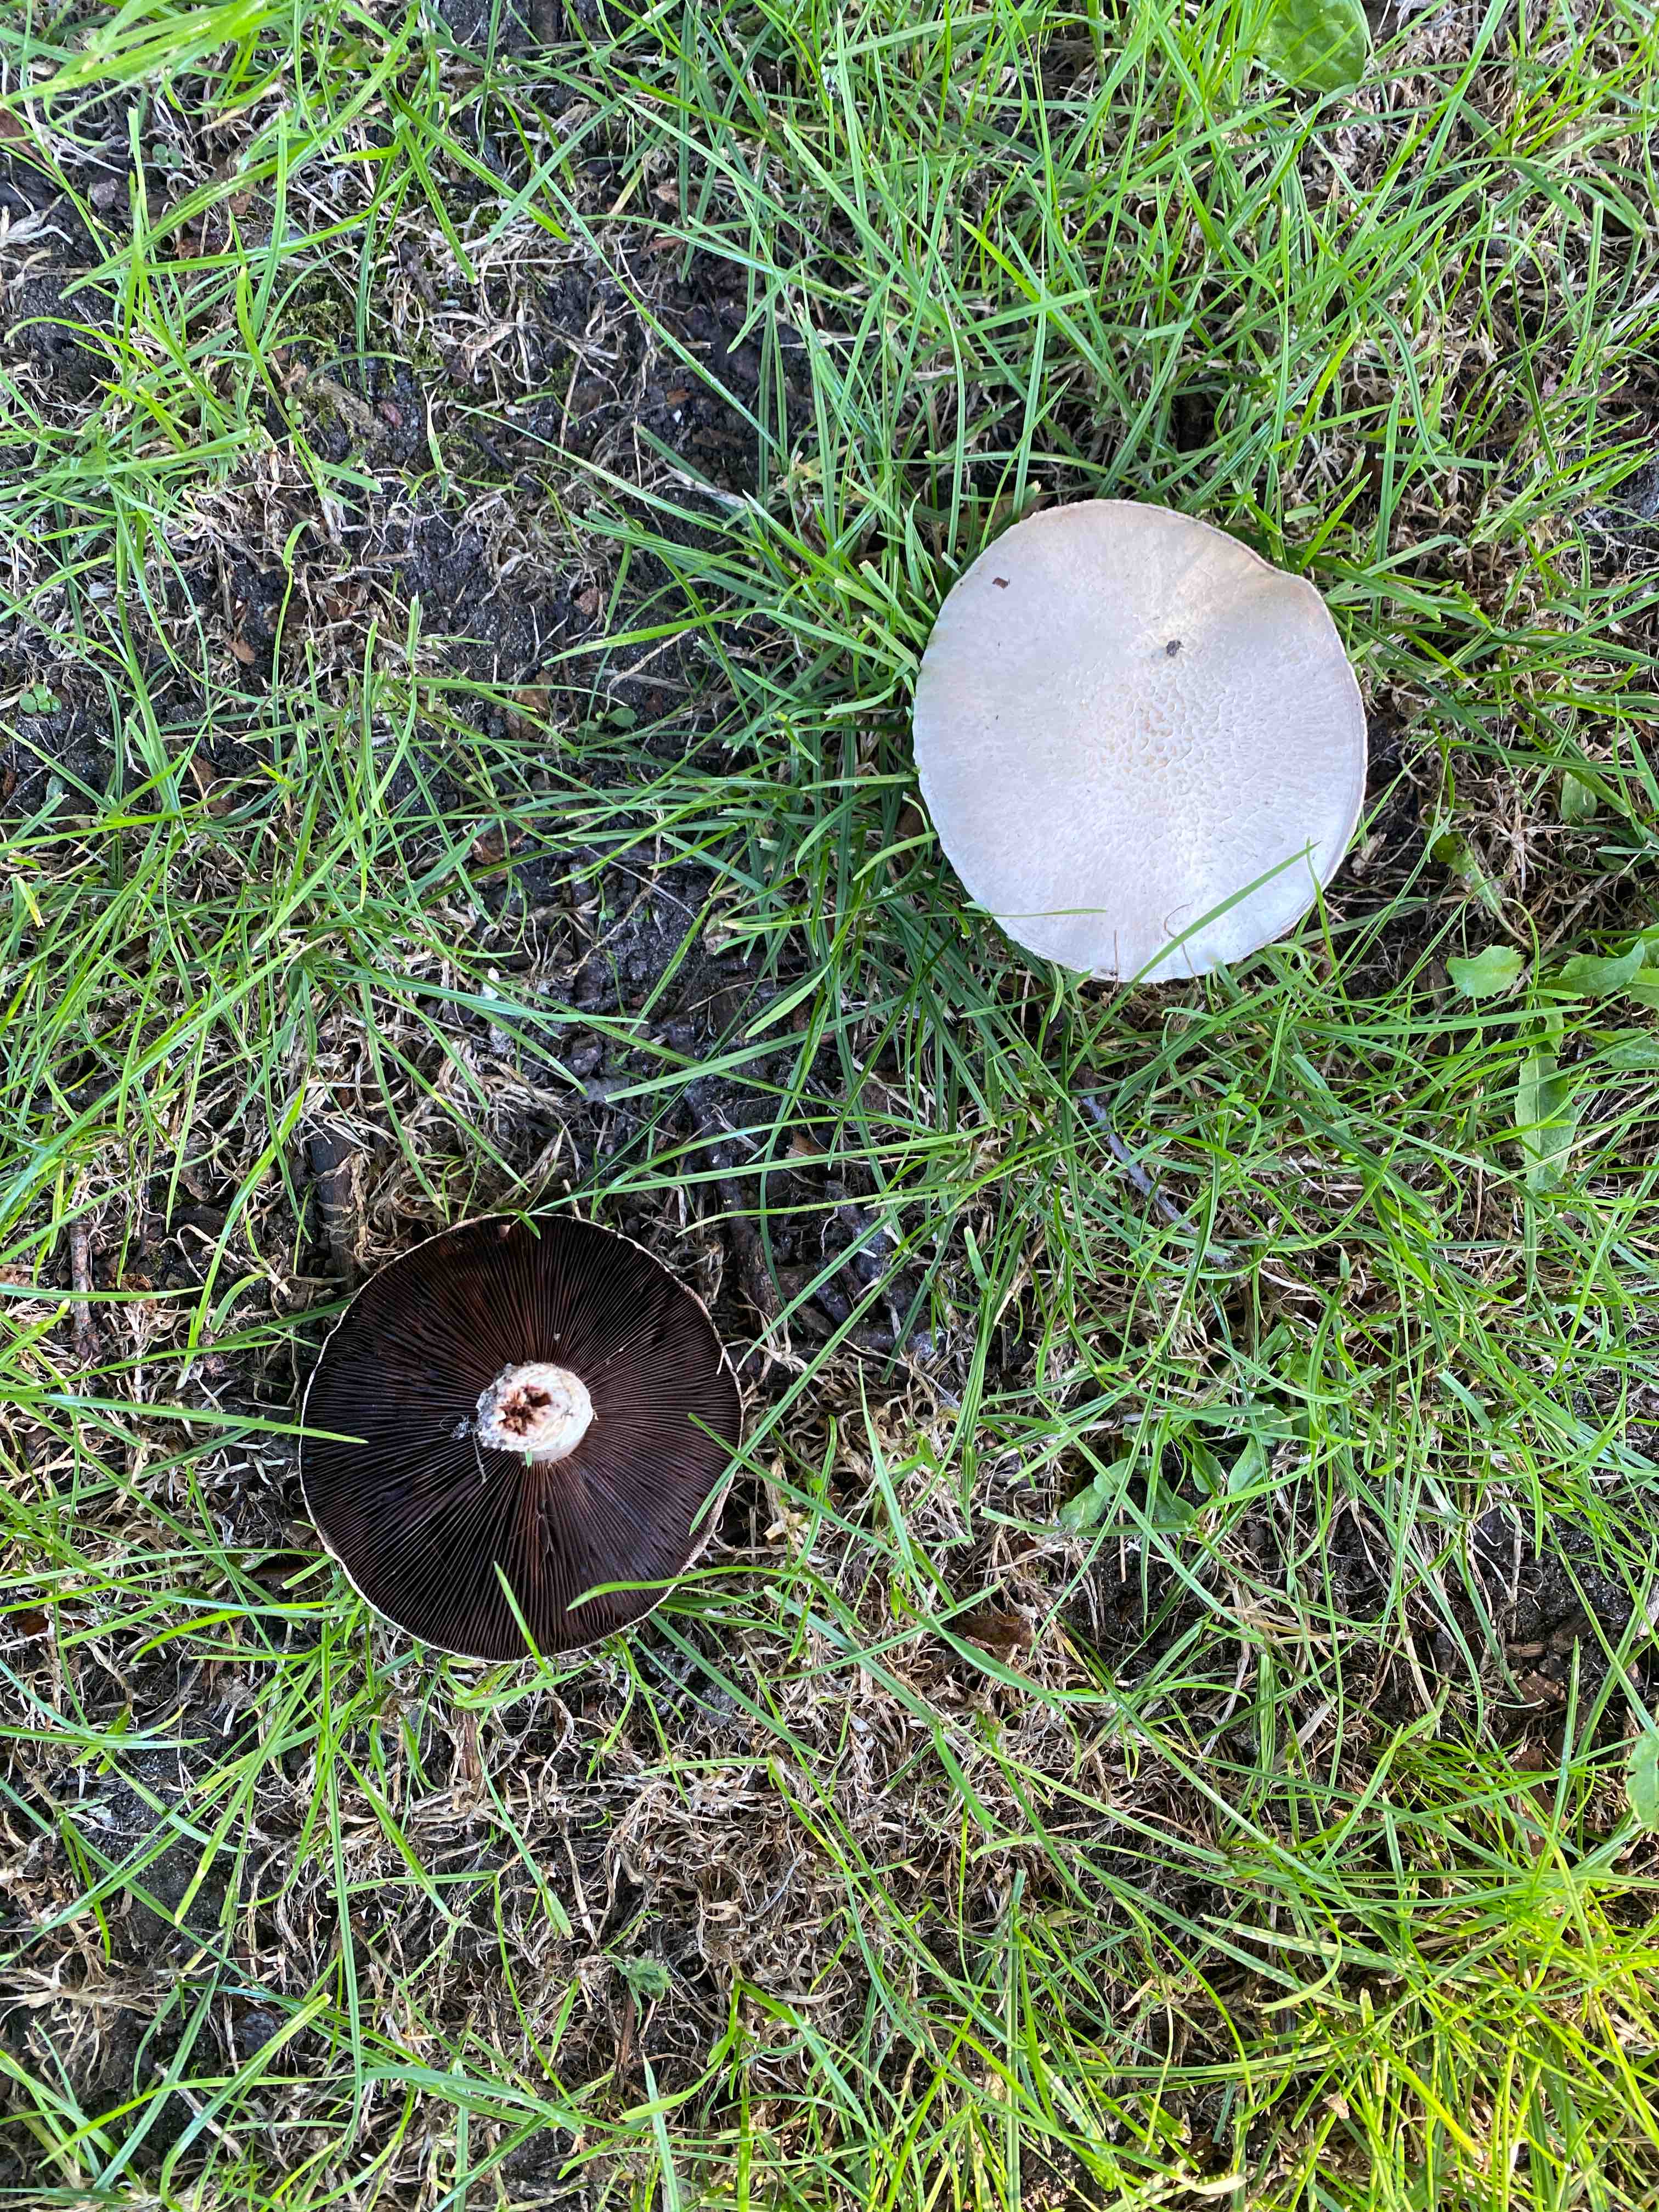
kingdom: Fungi
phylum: Basidiomycota
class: Agaricomycetes
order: Agaricales
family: Agaricaceae
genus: Agaricus
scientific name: Agaricus
